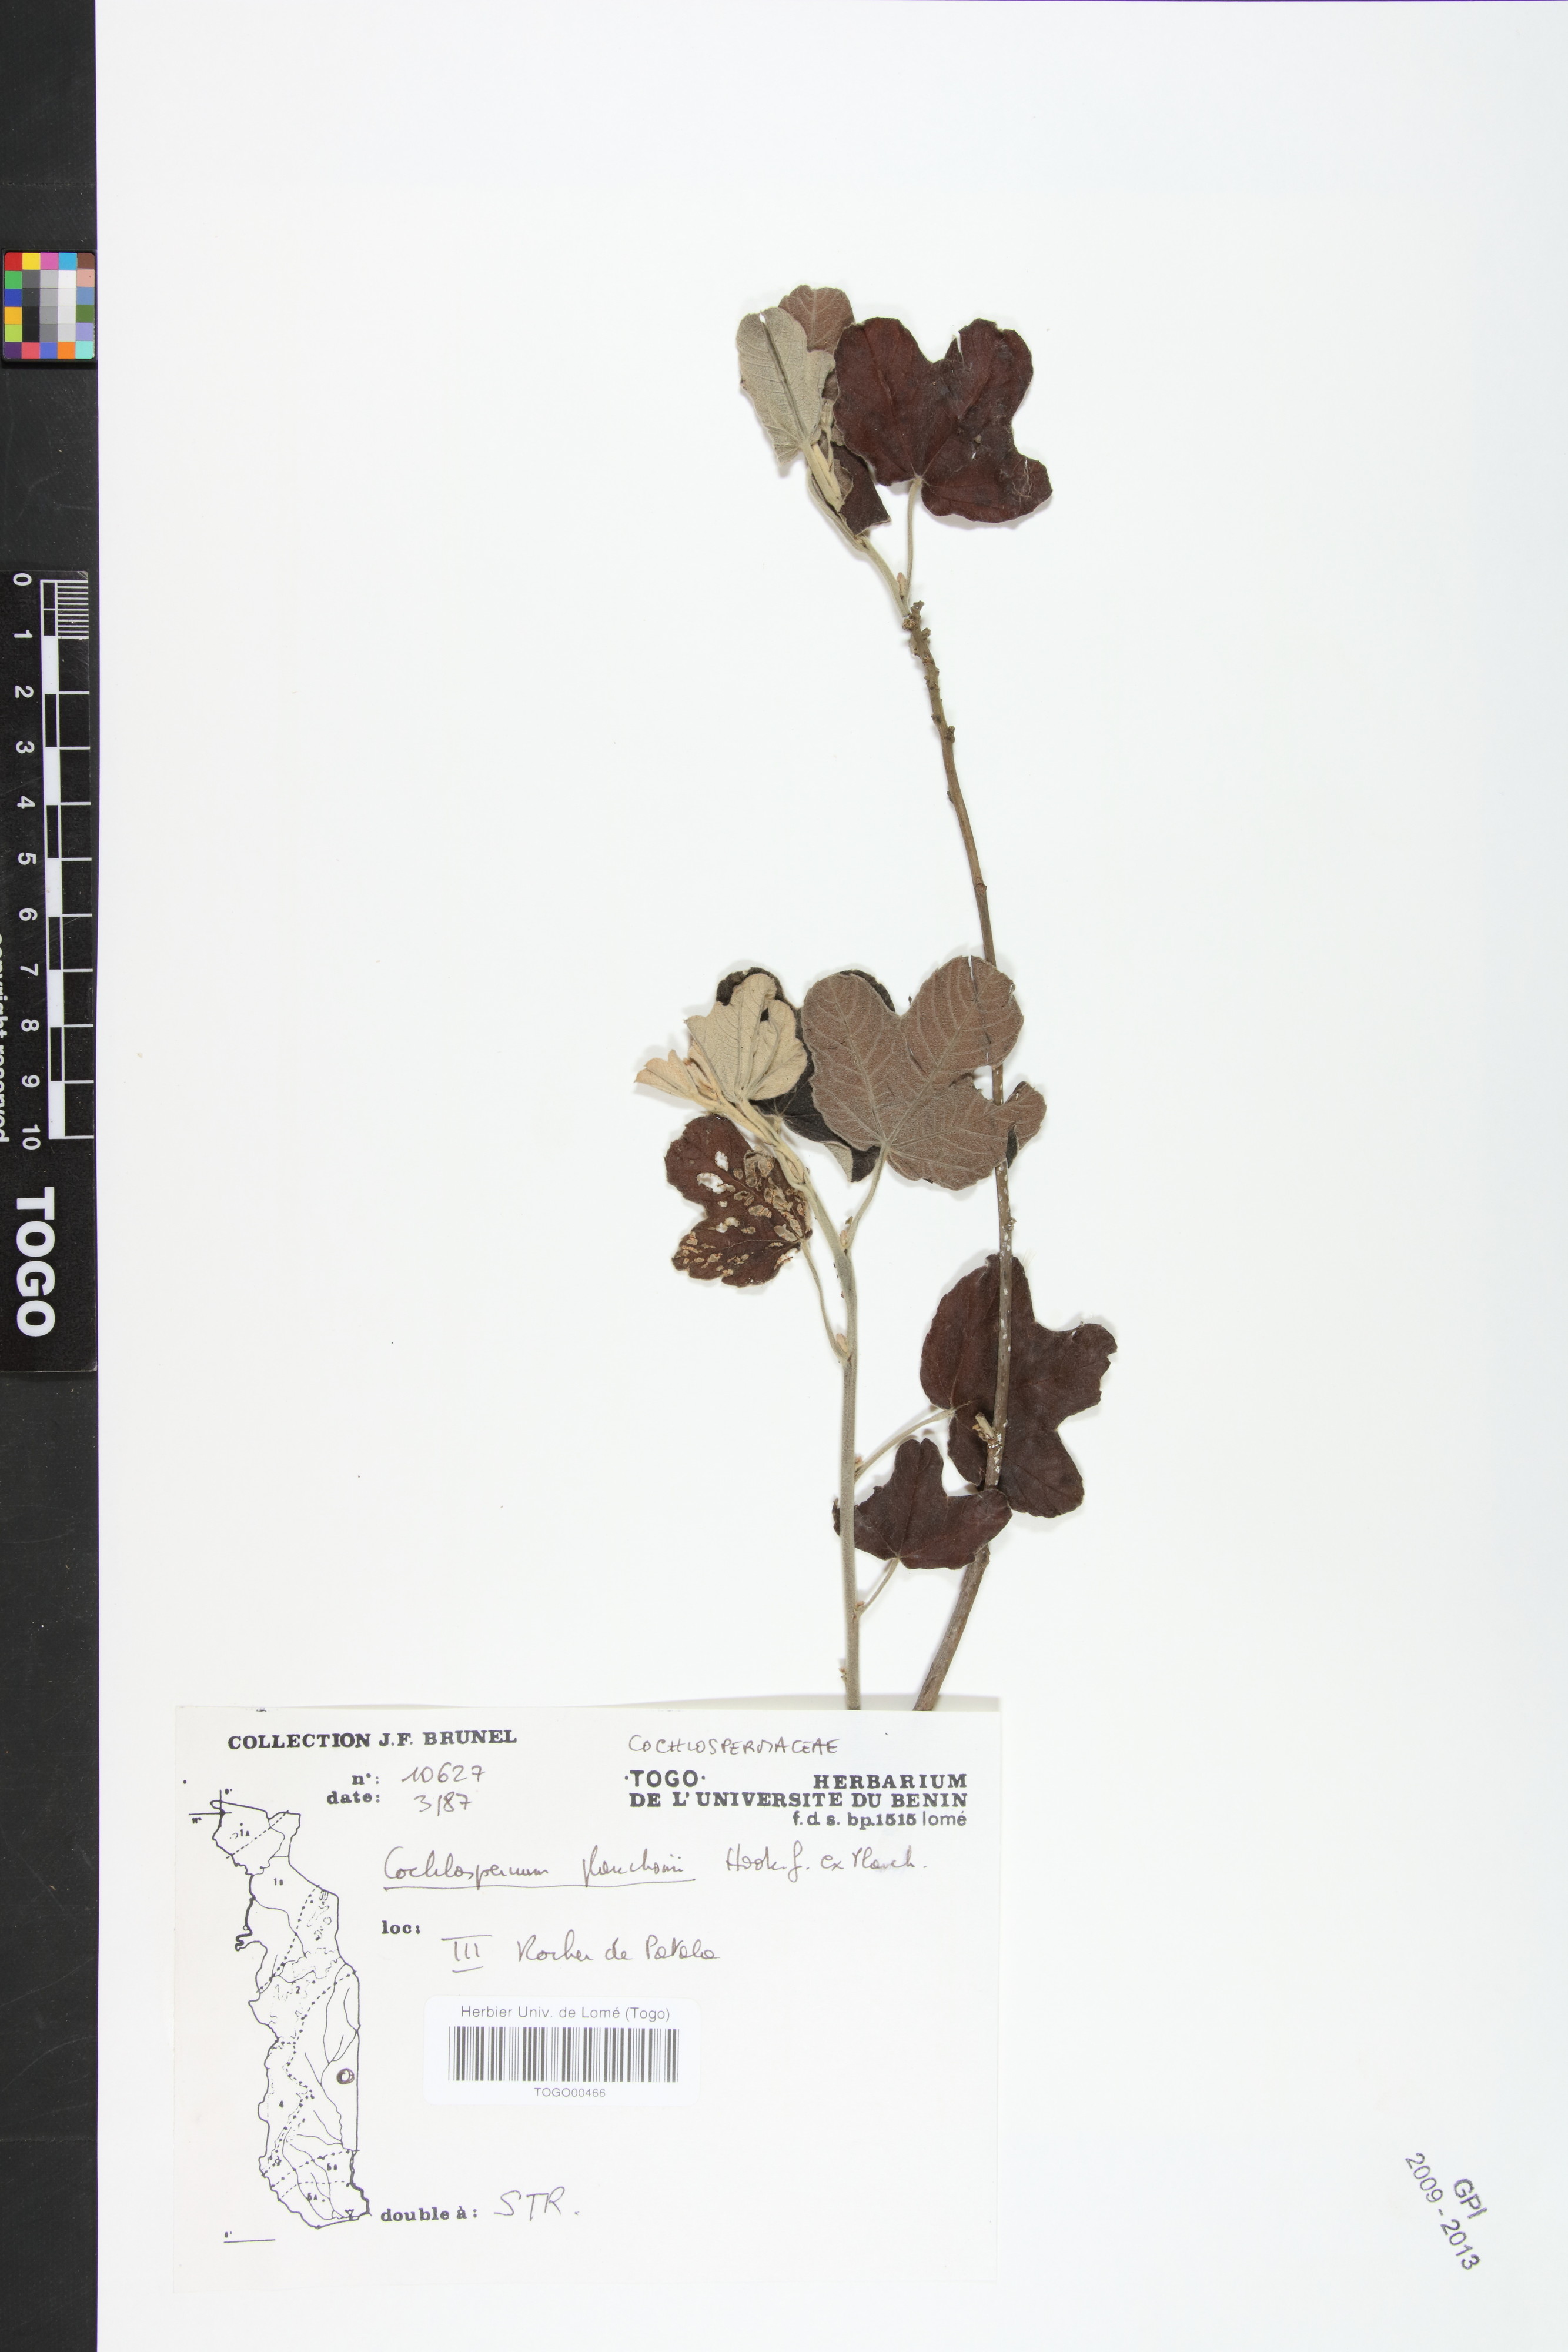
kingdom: Plantae
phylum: Tracheophyta
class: Magnoliopsida
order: Malvales
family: Cochlospermaceae
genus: Cochlospermum
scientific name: Cochlospermum planchonii
